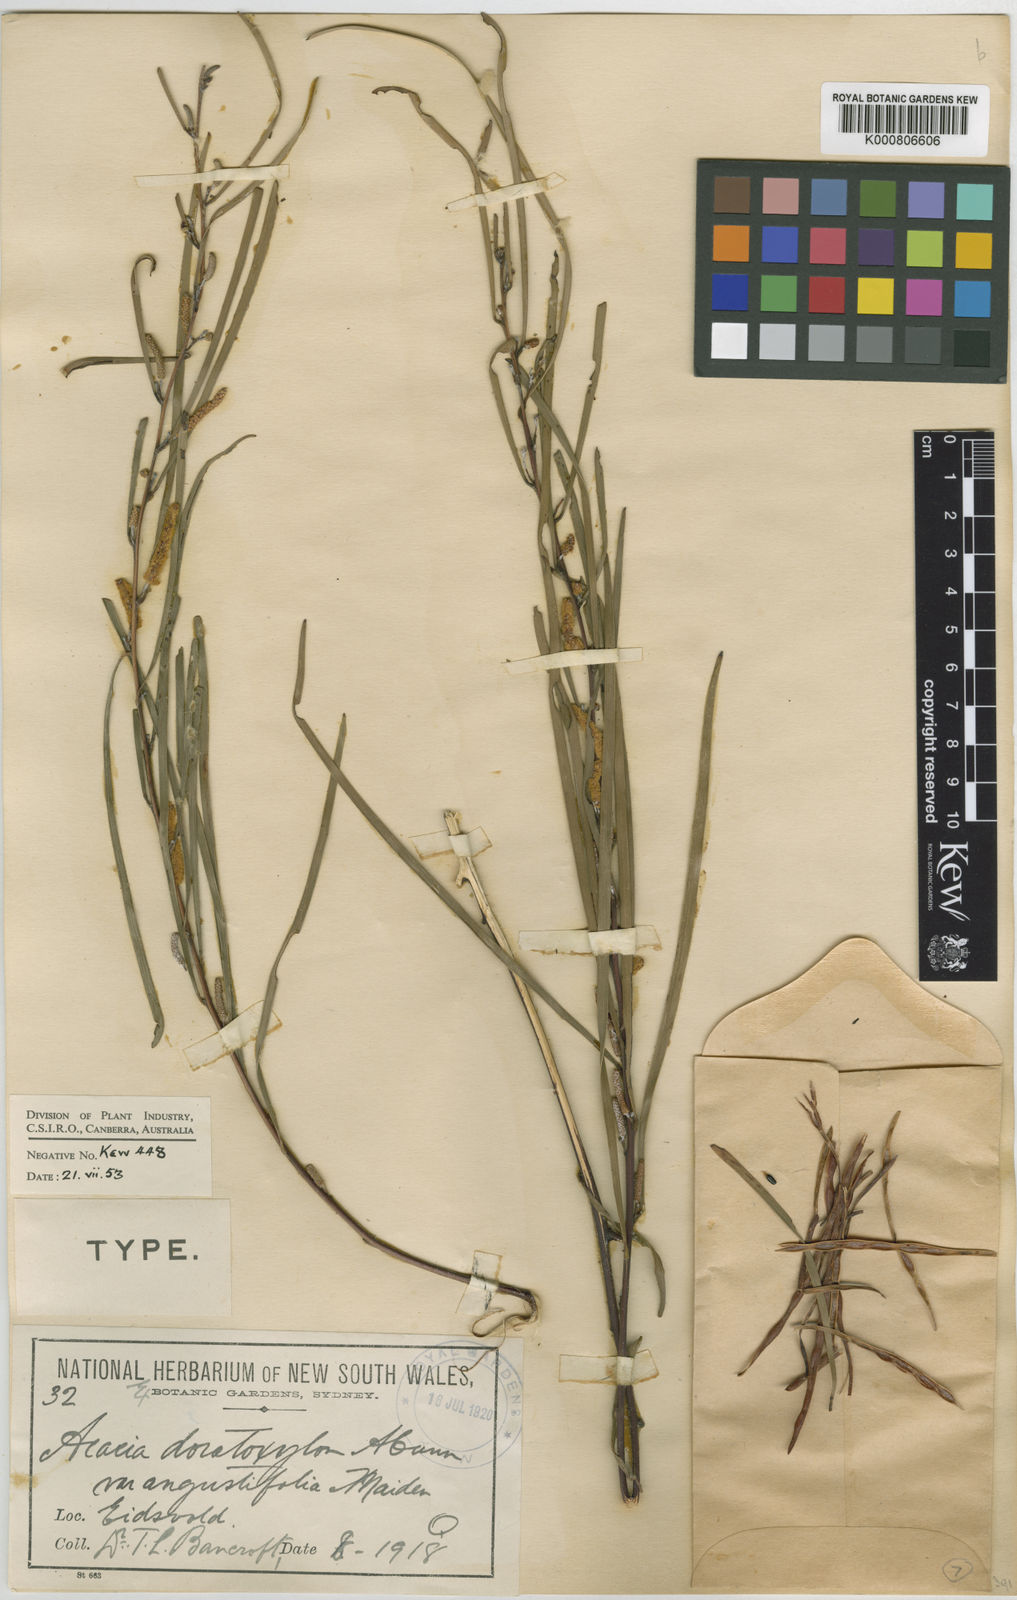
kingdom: Plantae
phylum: Tracheophyta
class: Magnoliopsida
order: Fabales
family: Fabaceae
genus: Acacia
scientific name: Acacia caroleae
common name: Narrow-leaf currawang
